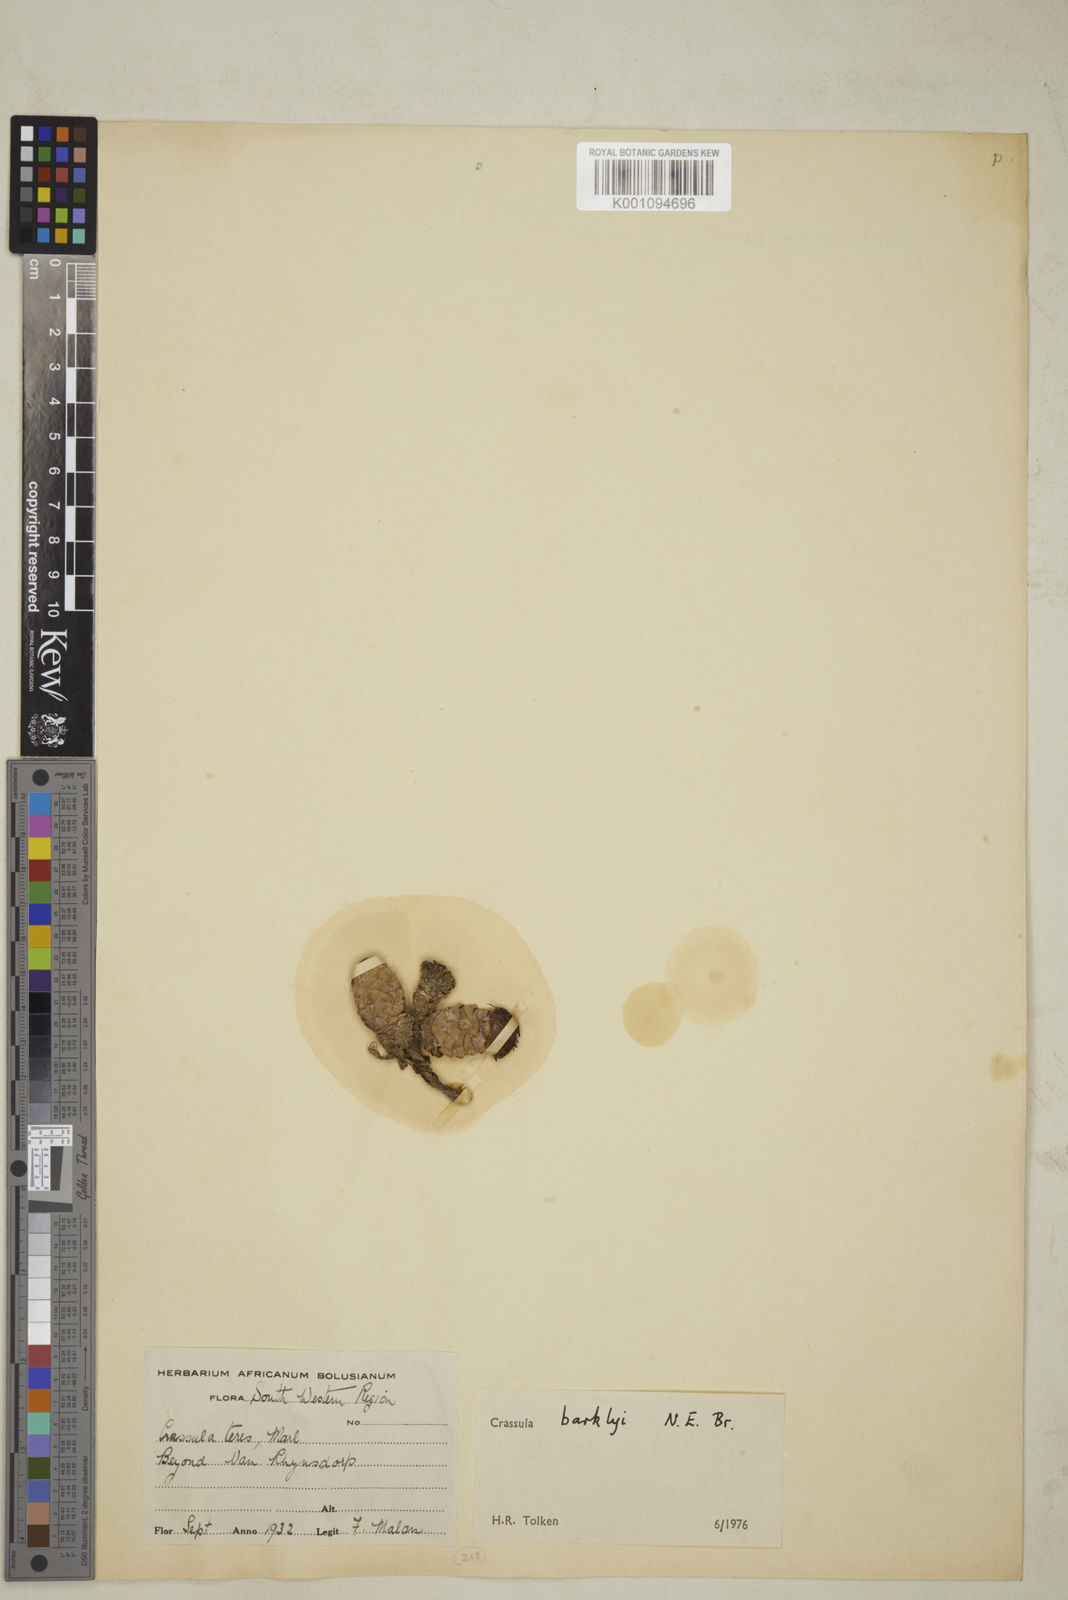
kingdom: Plantae
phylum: Tracheophyta
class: Magnoliopsida
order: Saxifragales
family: Crassulaceae
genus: Crassula
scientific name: Crassula barklyi
